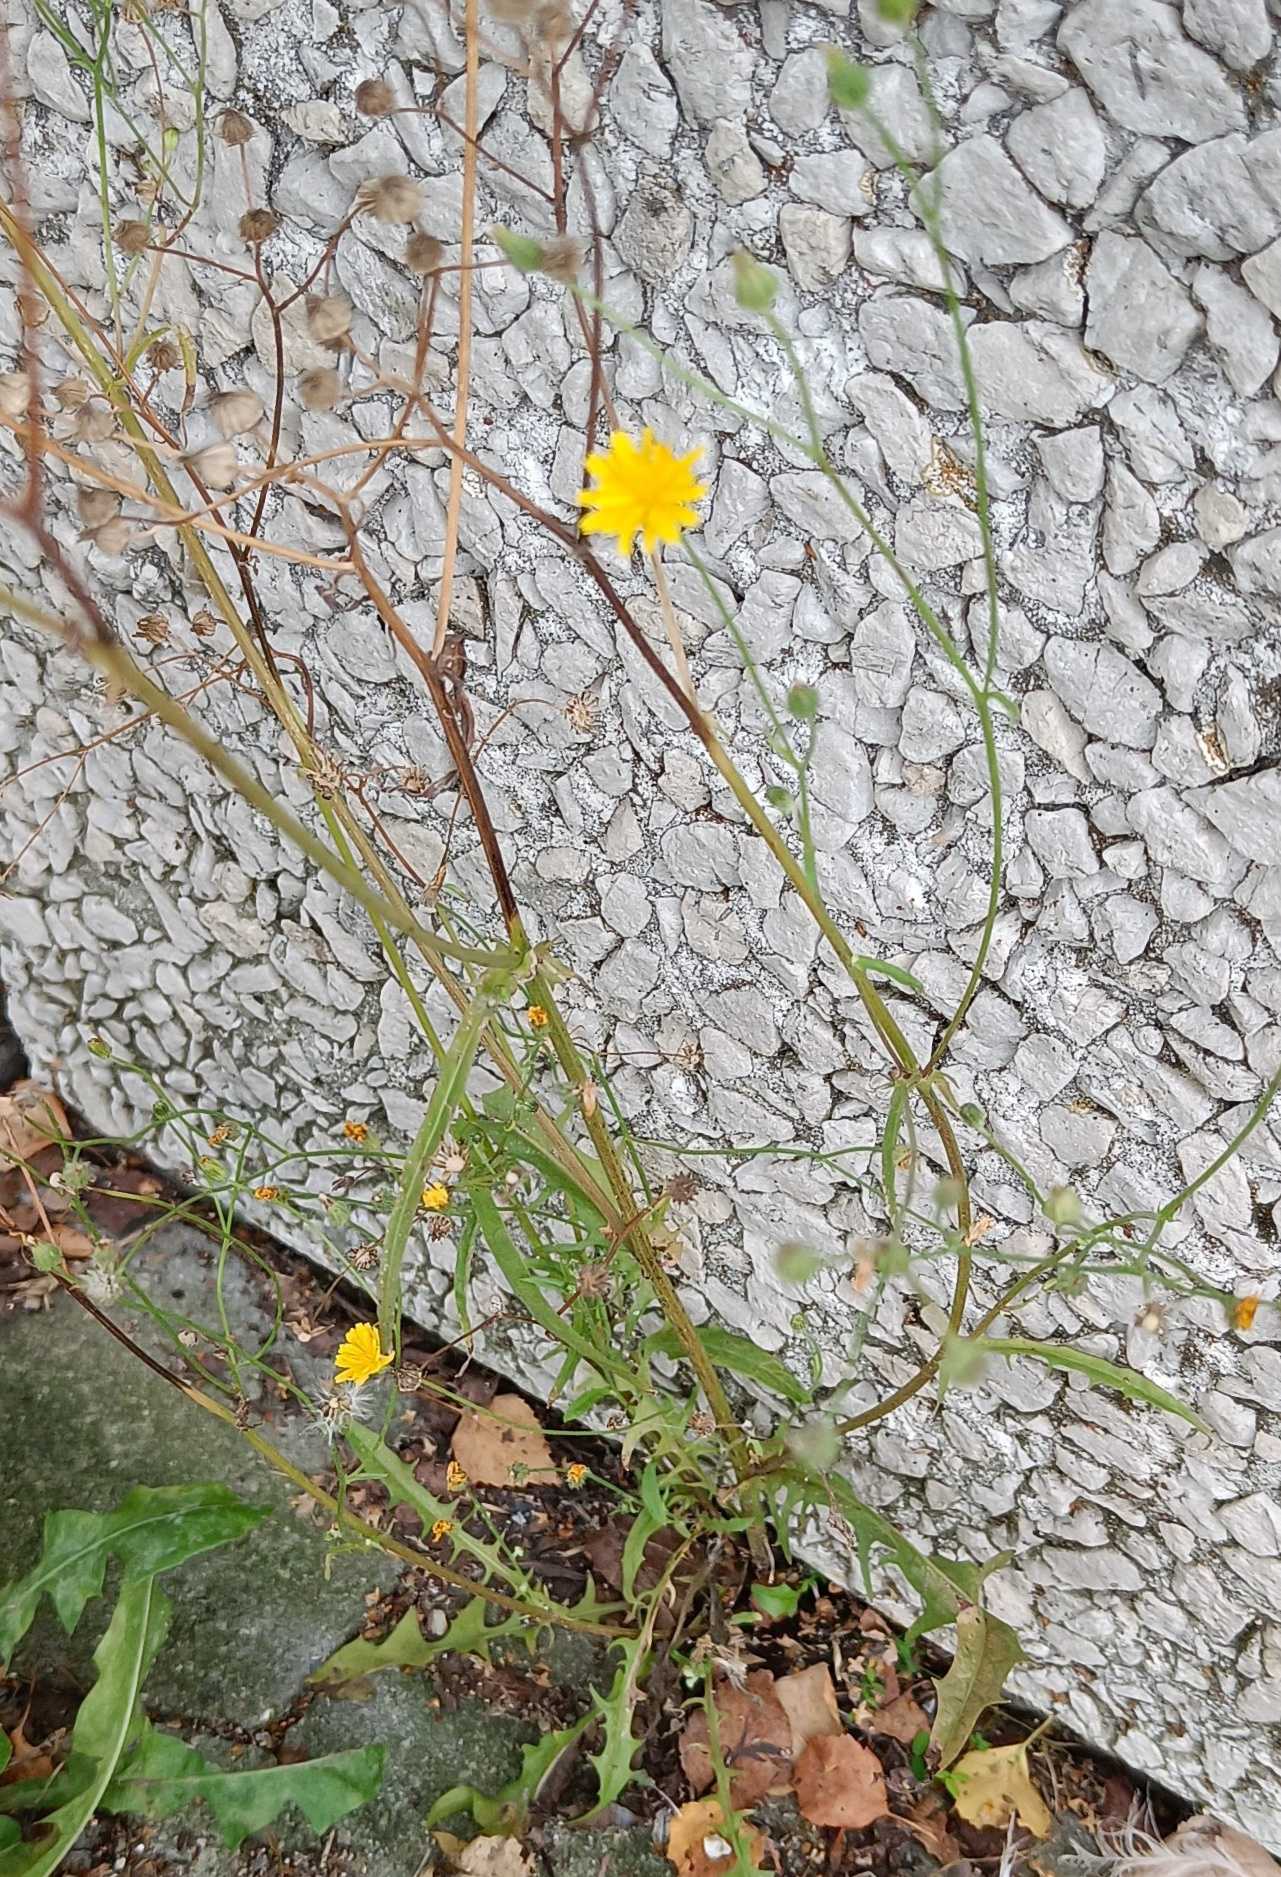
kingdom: Plantae
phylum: Tracheophyta
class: Magnoliopsida
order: Asterales
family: Asteraceae
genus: Crepis
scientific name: Crepis capillaris
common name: Grøn høgeskæg
